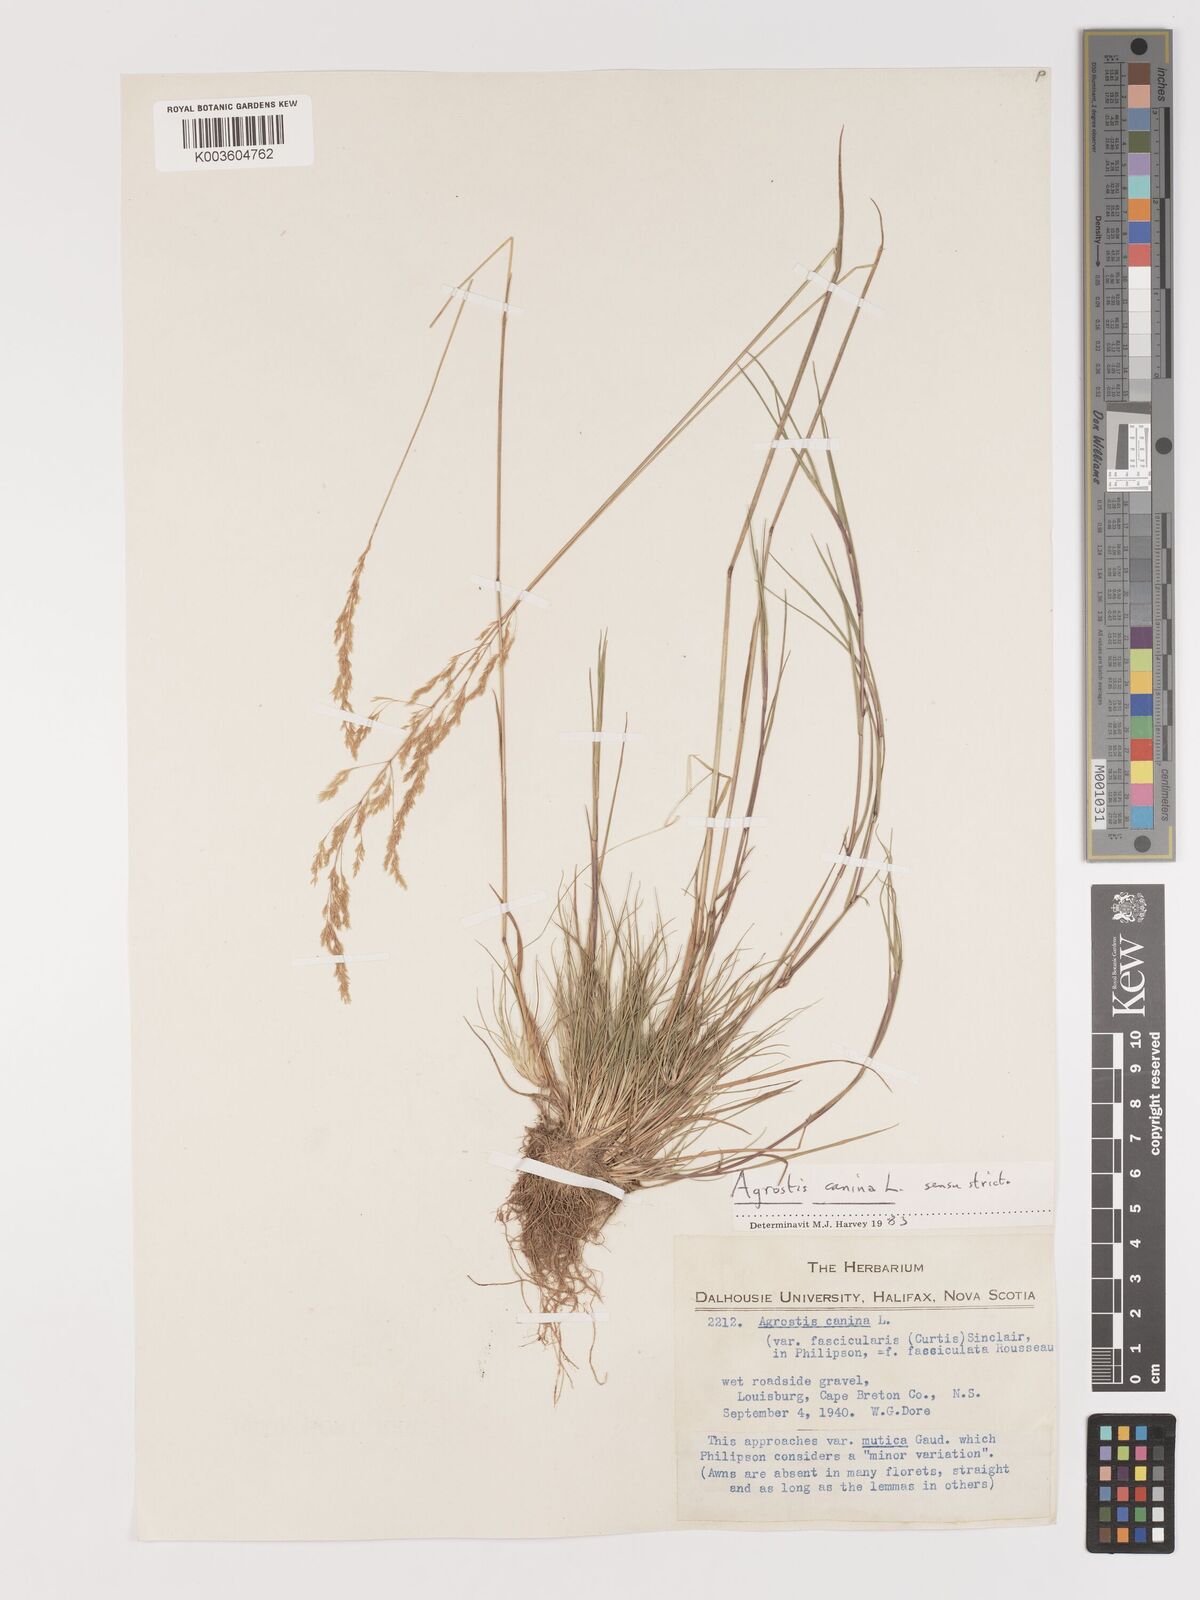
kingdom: Plantae
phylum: Tracheophyta
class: Liliopsida
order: Poales
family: Poaceae
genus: Agrostis
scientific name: Agrostis canina
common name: Velvet bent
